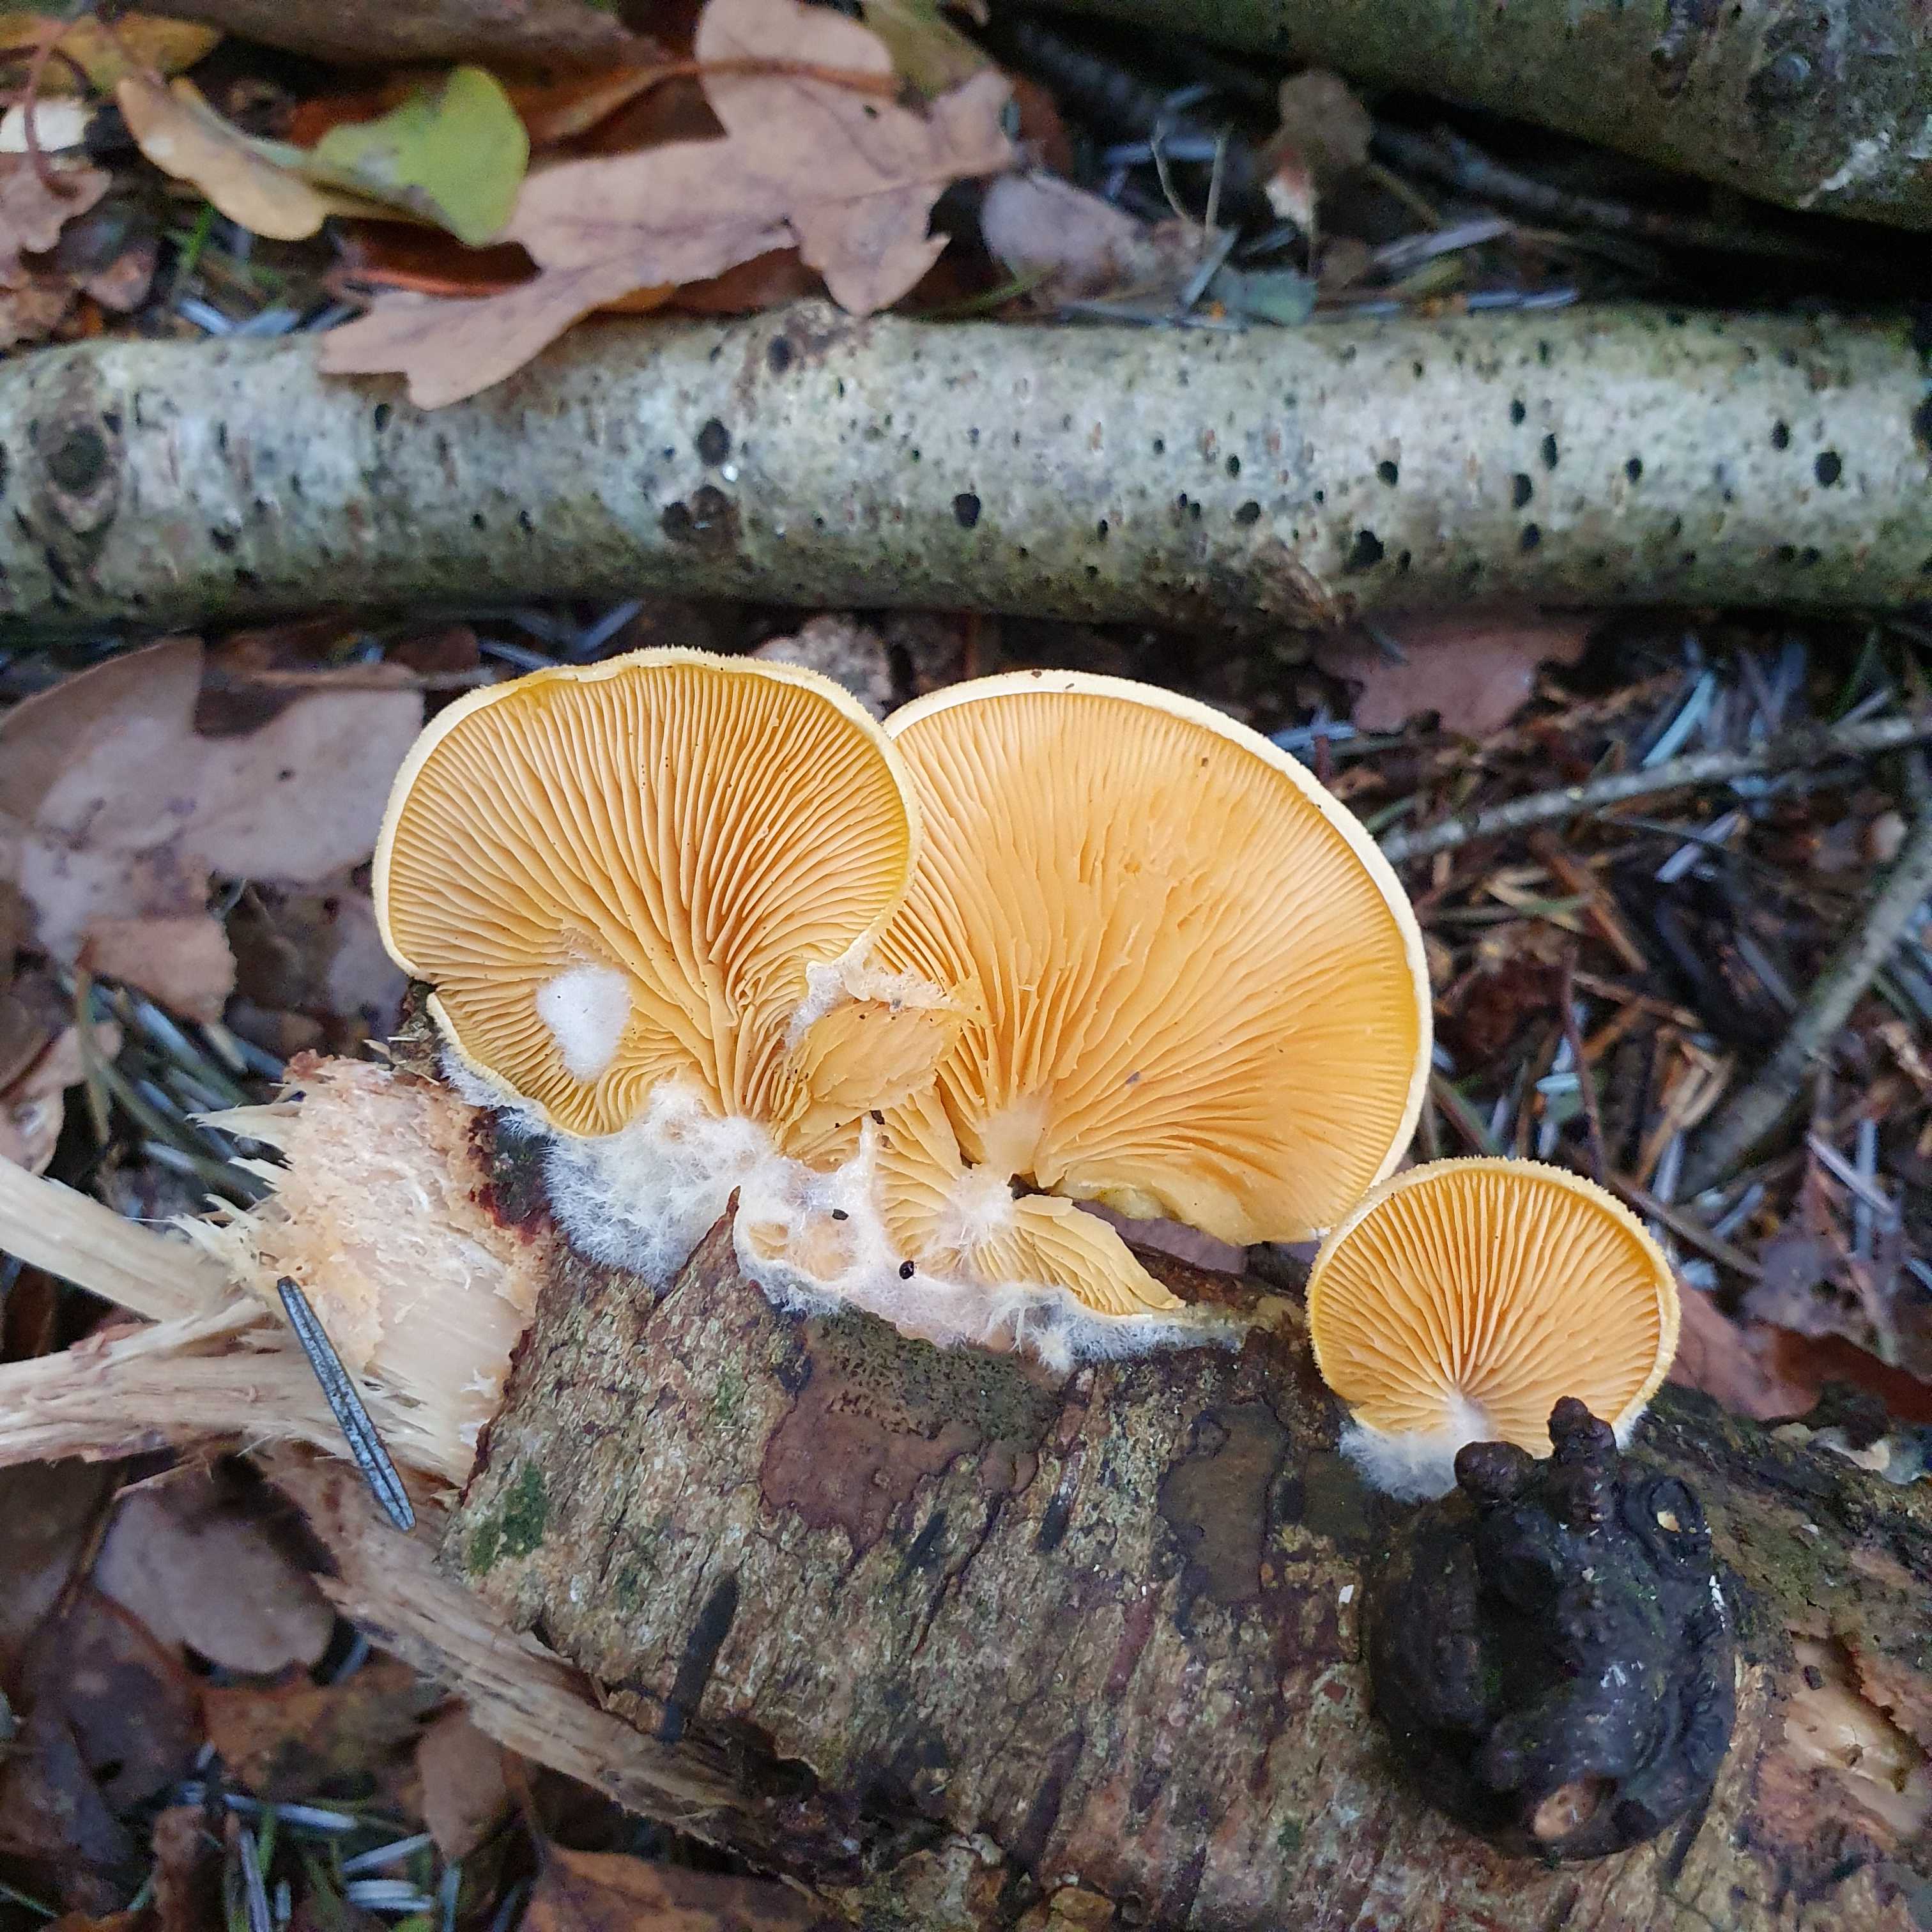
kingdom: Fungi
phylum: Basidiomycota
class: Agaricomycetes
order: Agaricales
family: Phyllotopsidaceae
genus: Phyllotopsis
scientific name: Phyllotopsis nidulans
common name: okkerblad
